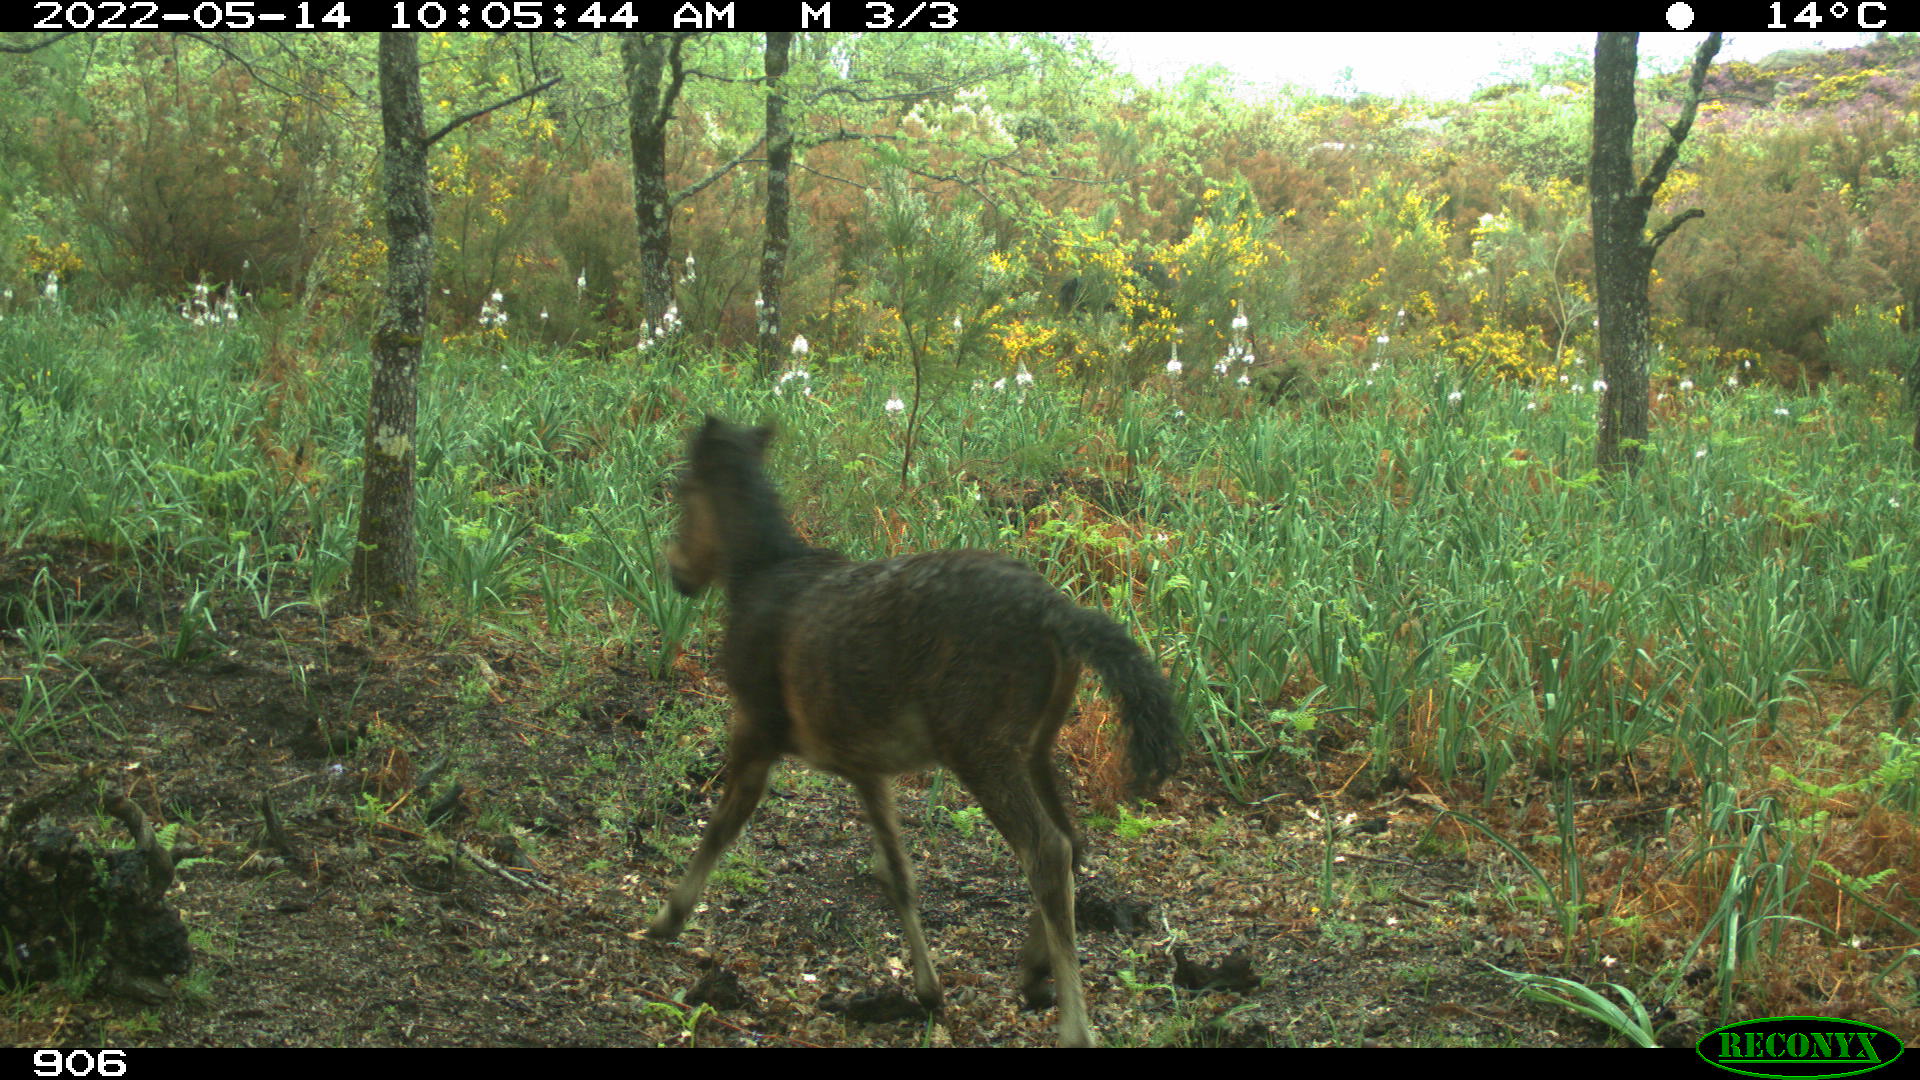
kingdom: Animalia
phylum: Chordata
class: Mammalia
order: Perissodactyla
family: Equidae
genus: Equus
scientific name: Equus caballus
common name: Horse
